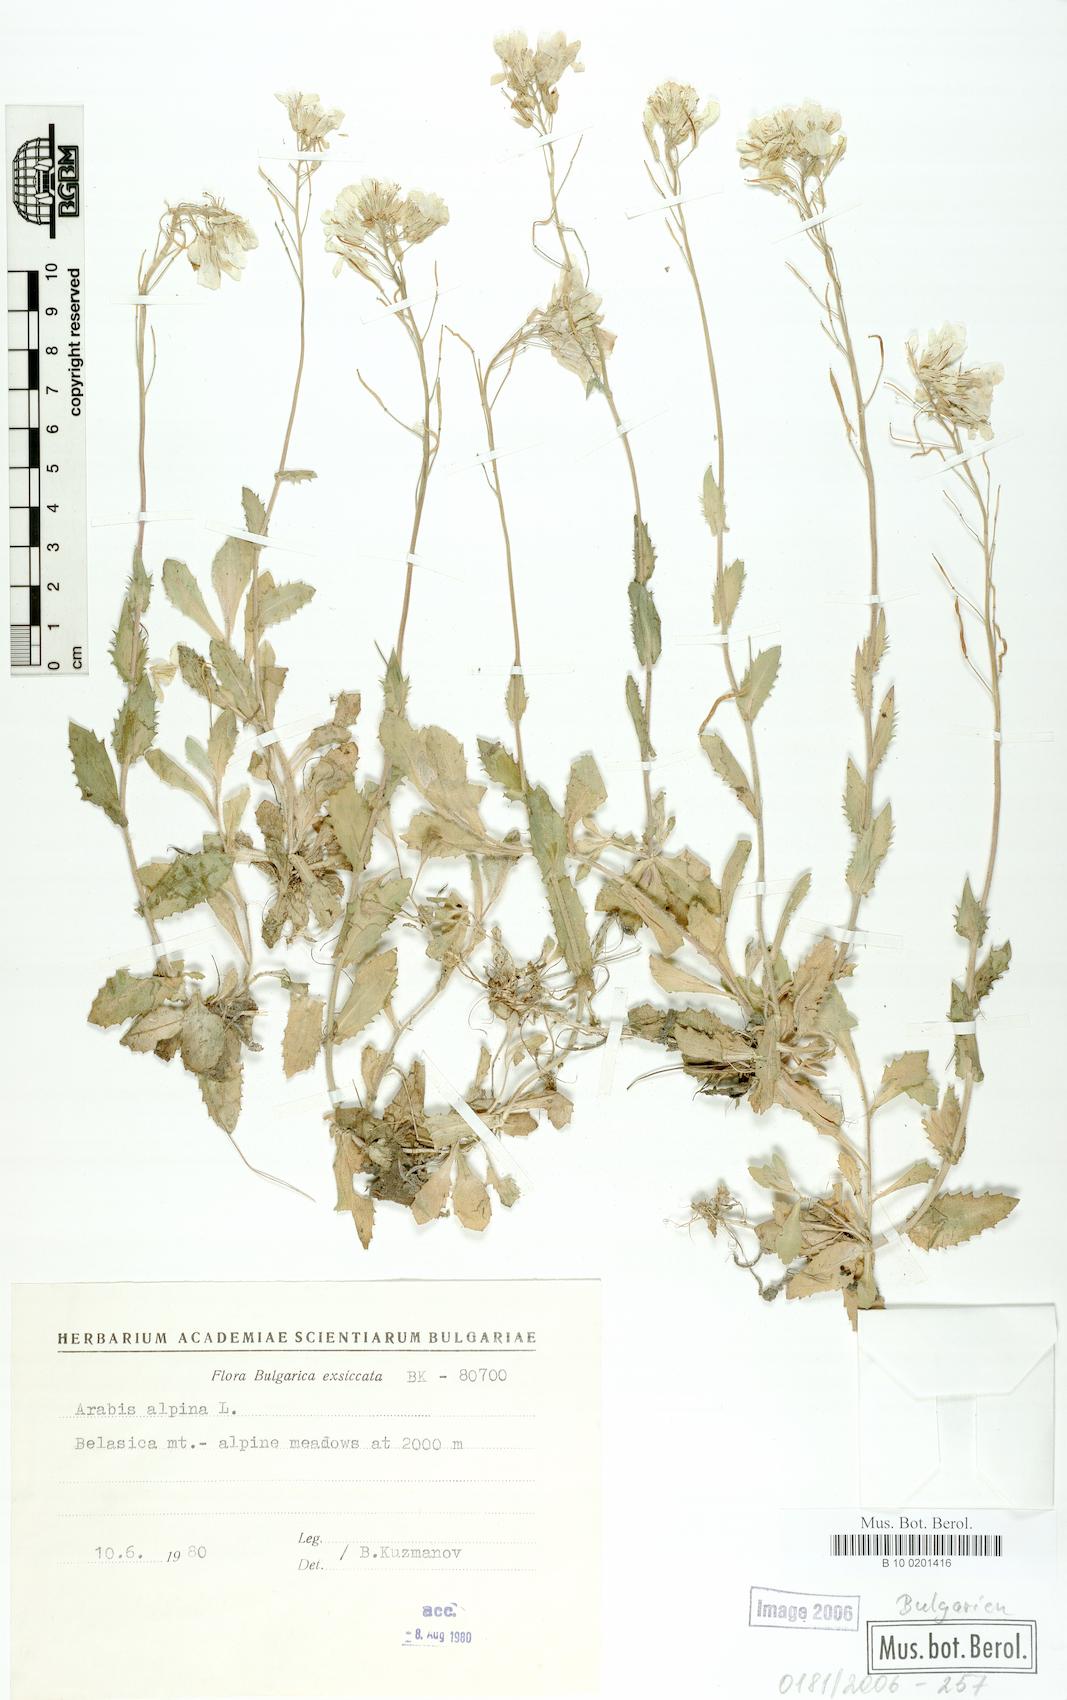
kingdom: Plantae
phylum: Tracheophyta
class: Magnoliopsida
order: Brassicales
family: Brassicaceae
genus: Arabis
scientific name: Arabis alpina
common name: Alpine rock-cress
